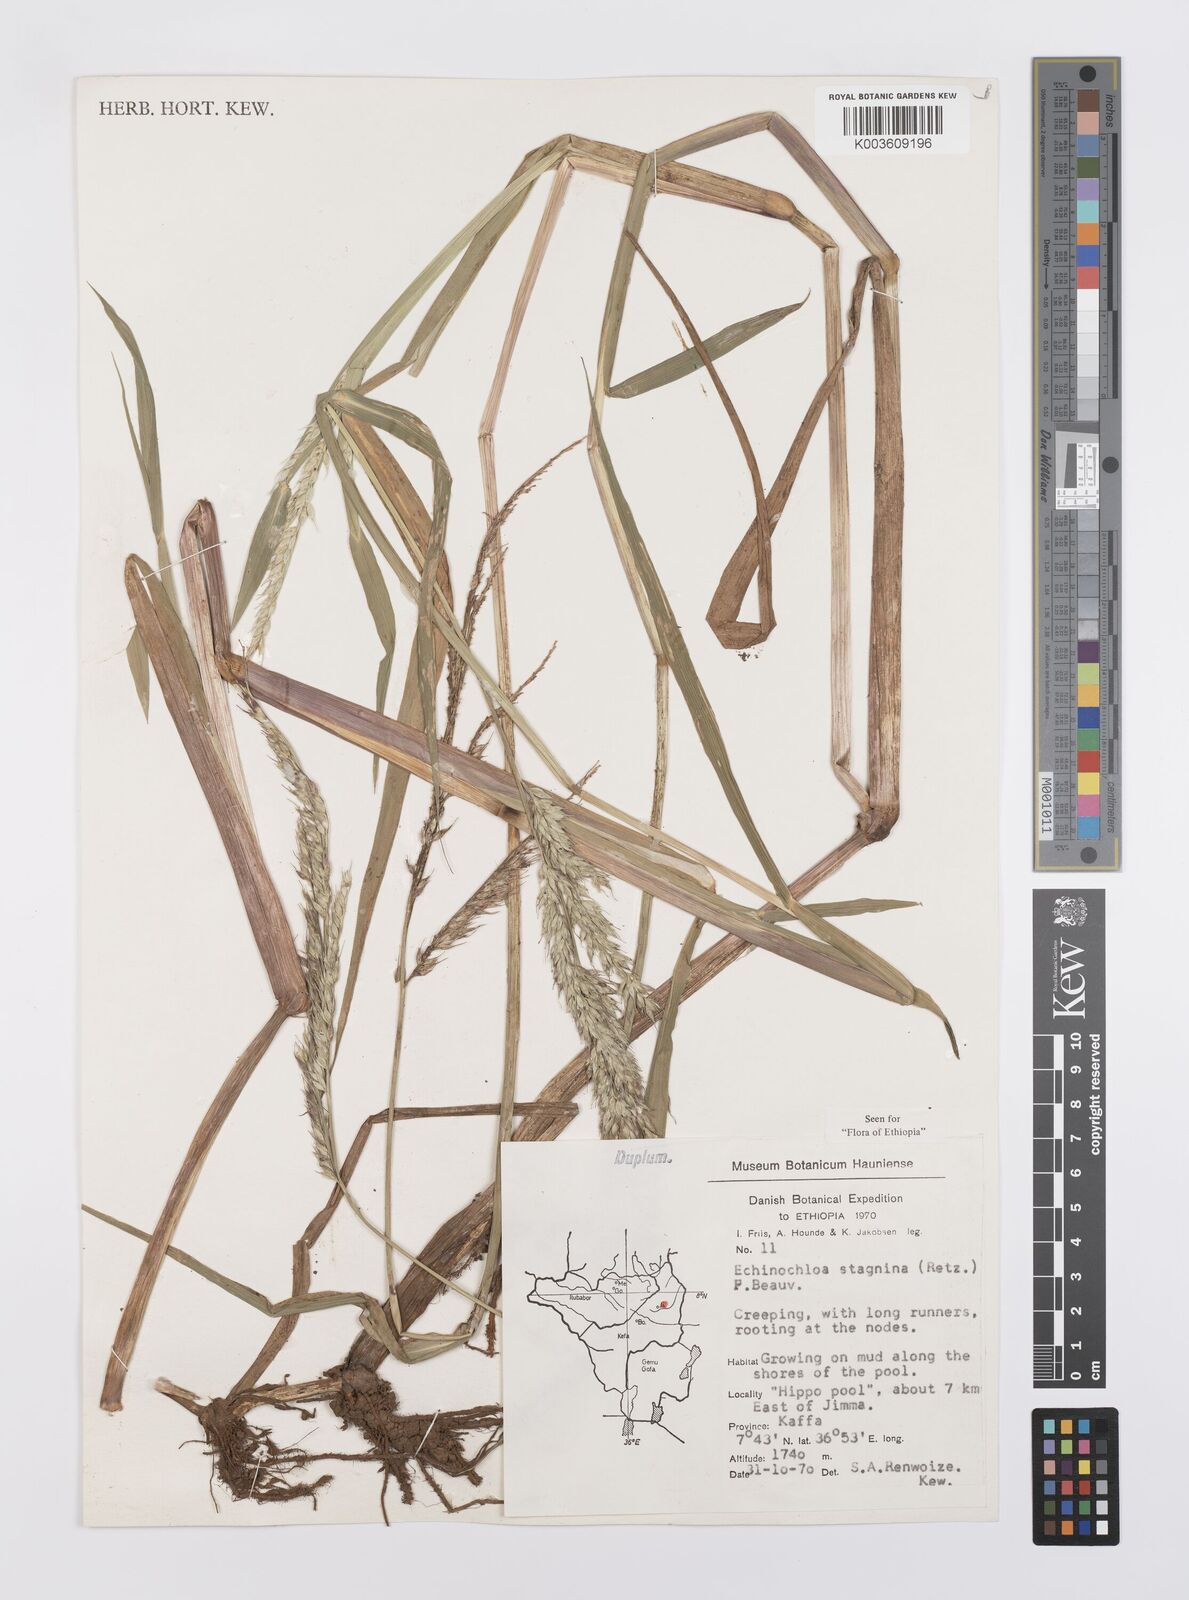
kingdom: Plantae
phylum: Tracheophyta
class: Liliopsida
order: Poales
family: Poaceae
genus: Echinochloa
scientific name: Echinochloa stagnina
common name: Burgu grass
